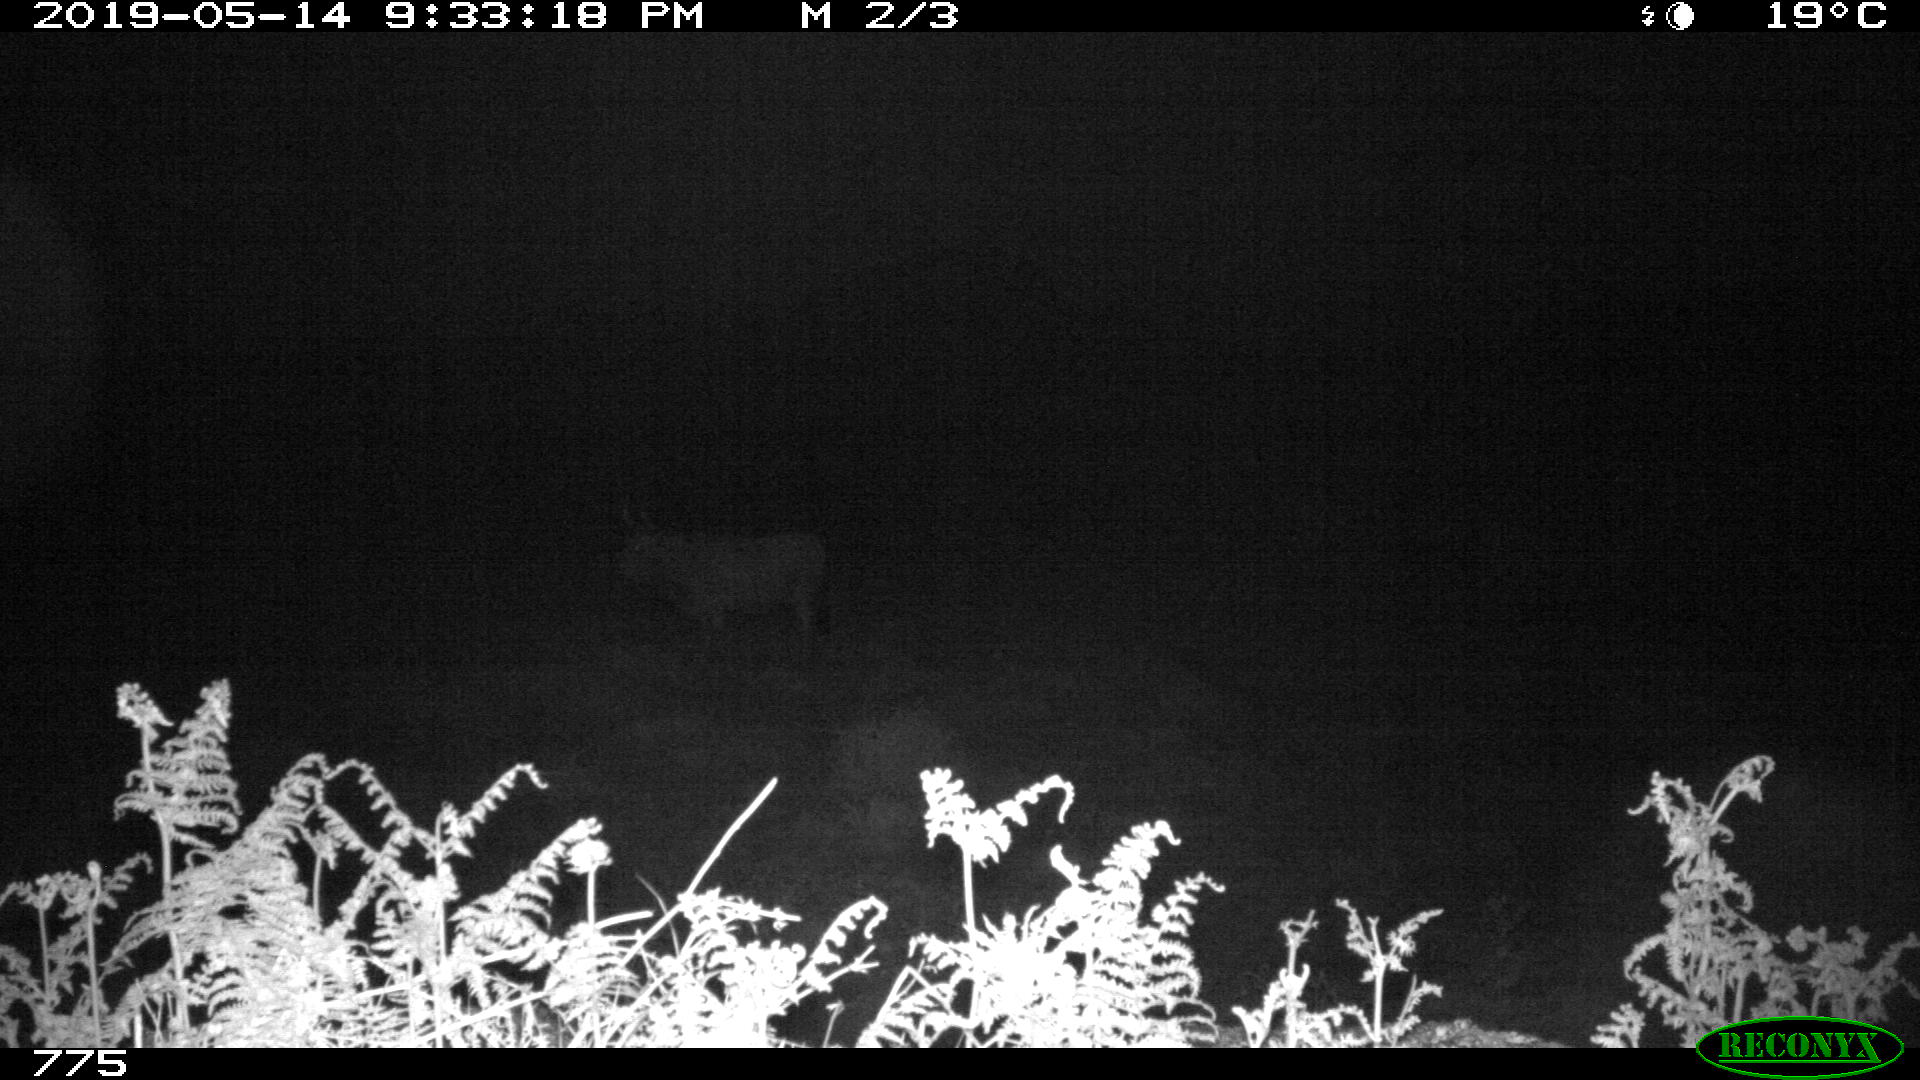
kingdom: Animalia
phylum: Chordata
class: Mammalia
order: Artiodactyla
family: Bovidae
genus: Bos
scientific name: Bos taurus
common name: Domesticated cattle
